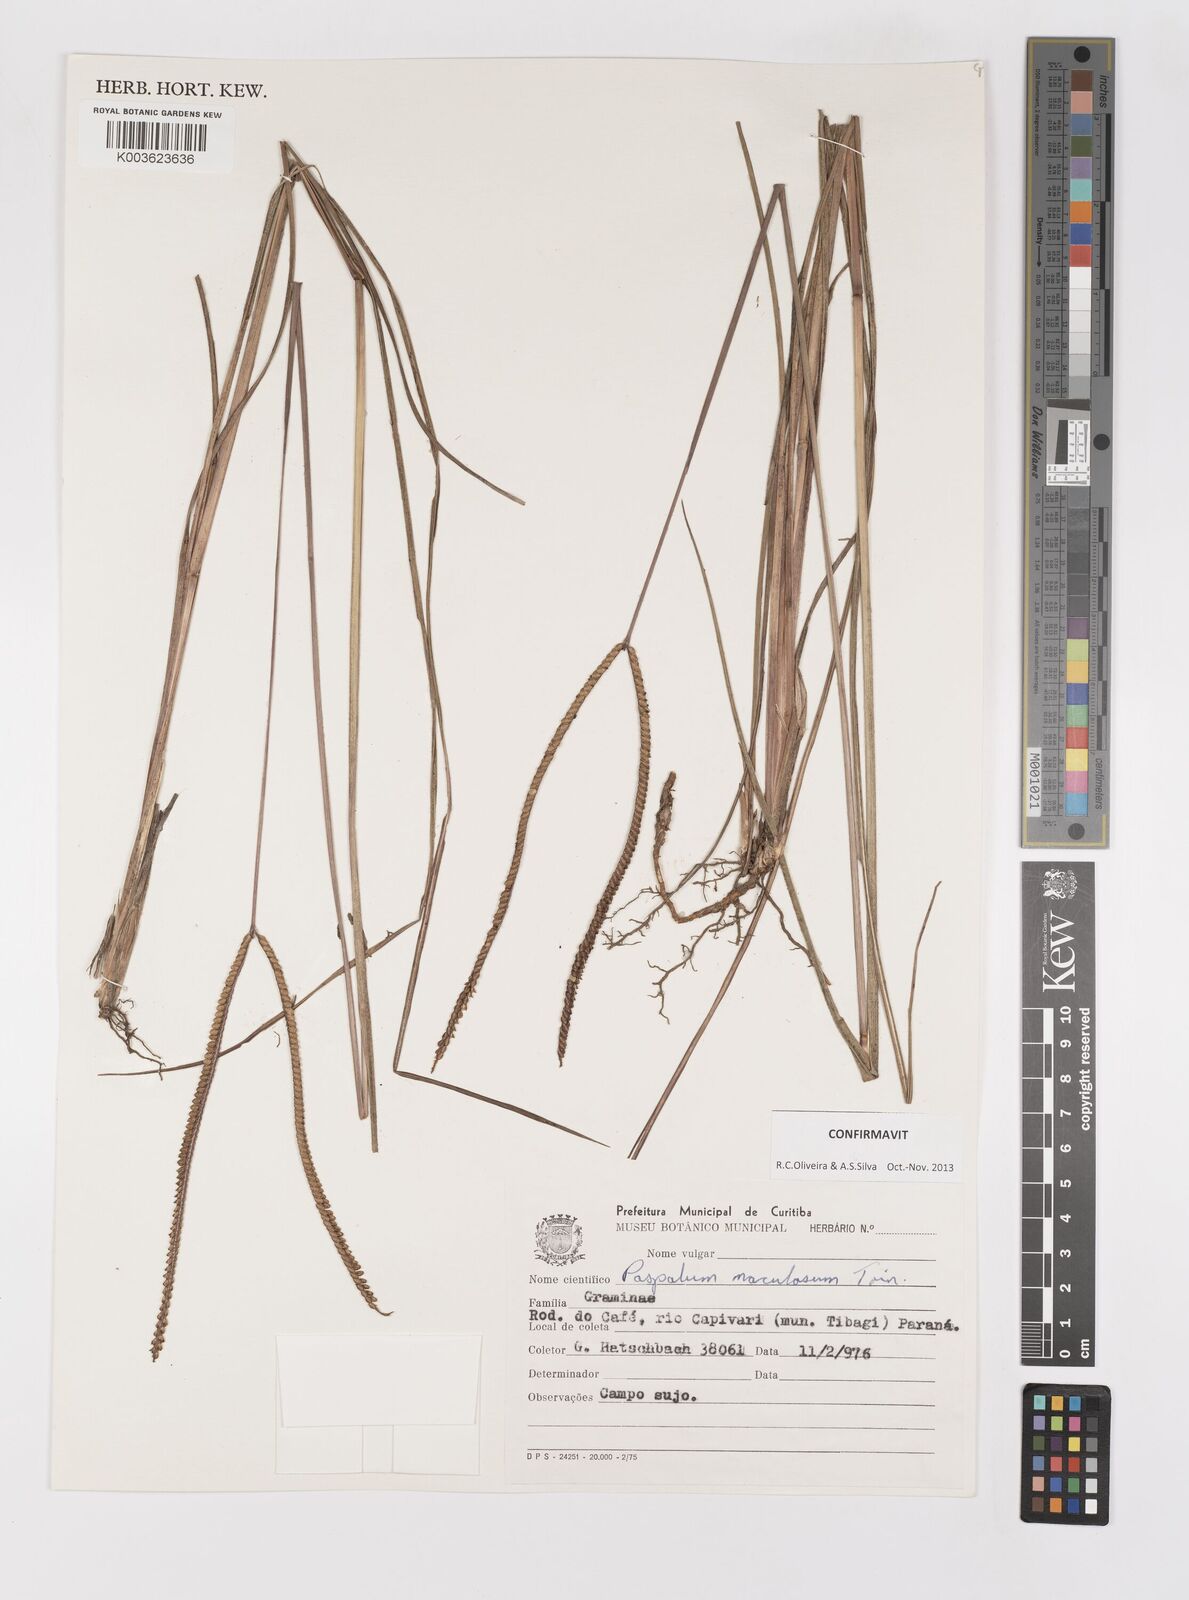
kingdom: Plantae
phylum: Tracheophyta
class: Liliopsida
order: Poales
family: Poaceae
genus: Paspalum
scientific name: Paspalum maculosum
